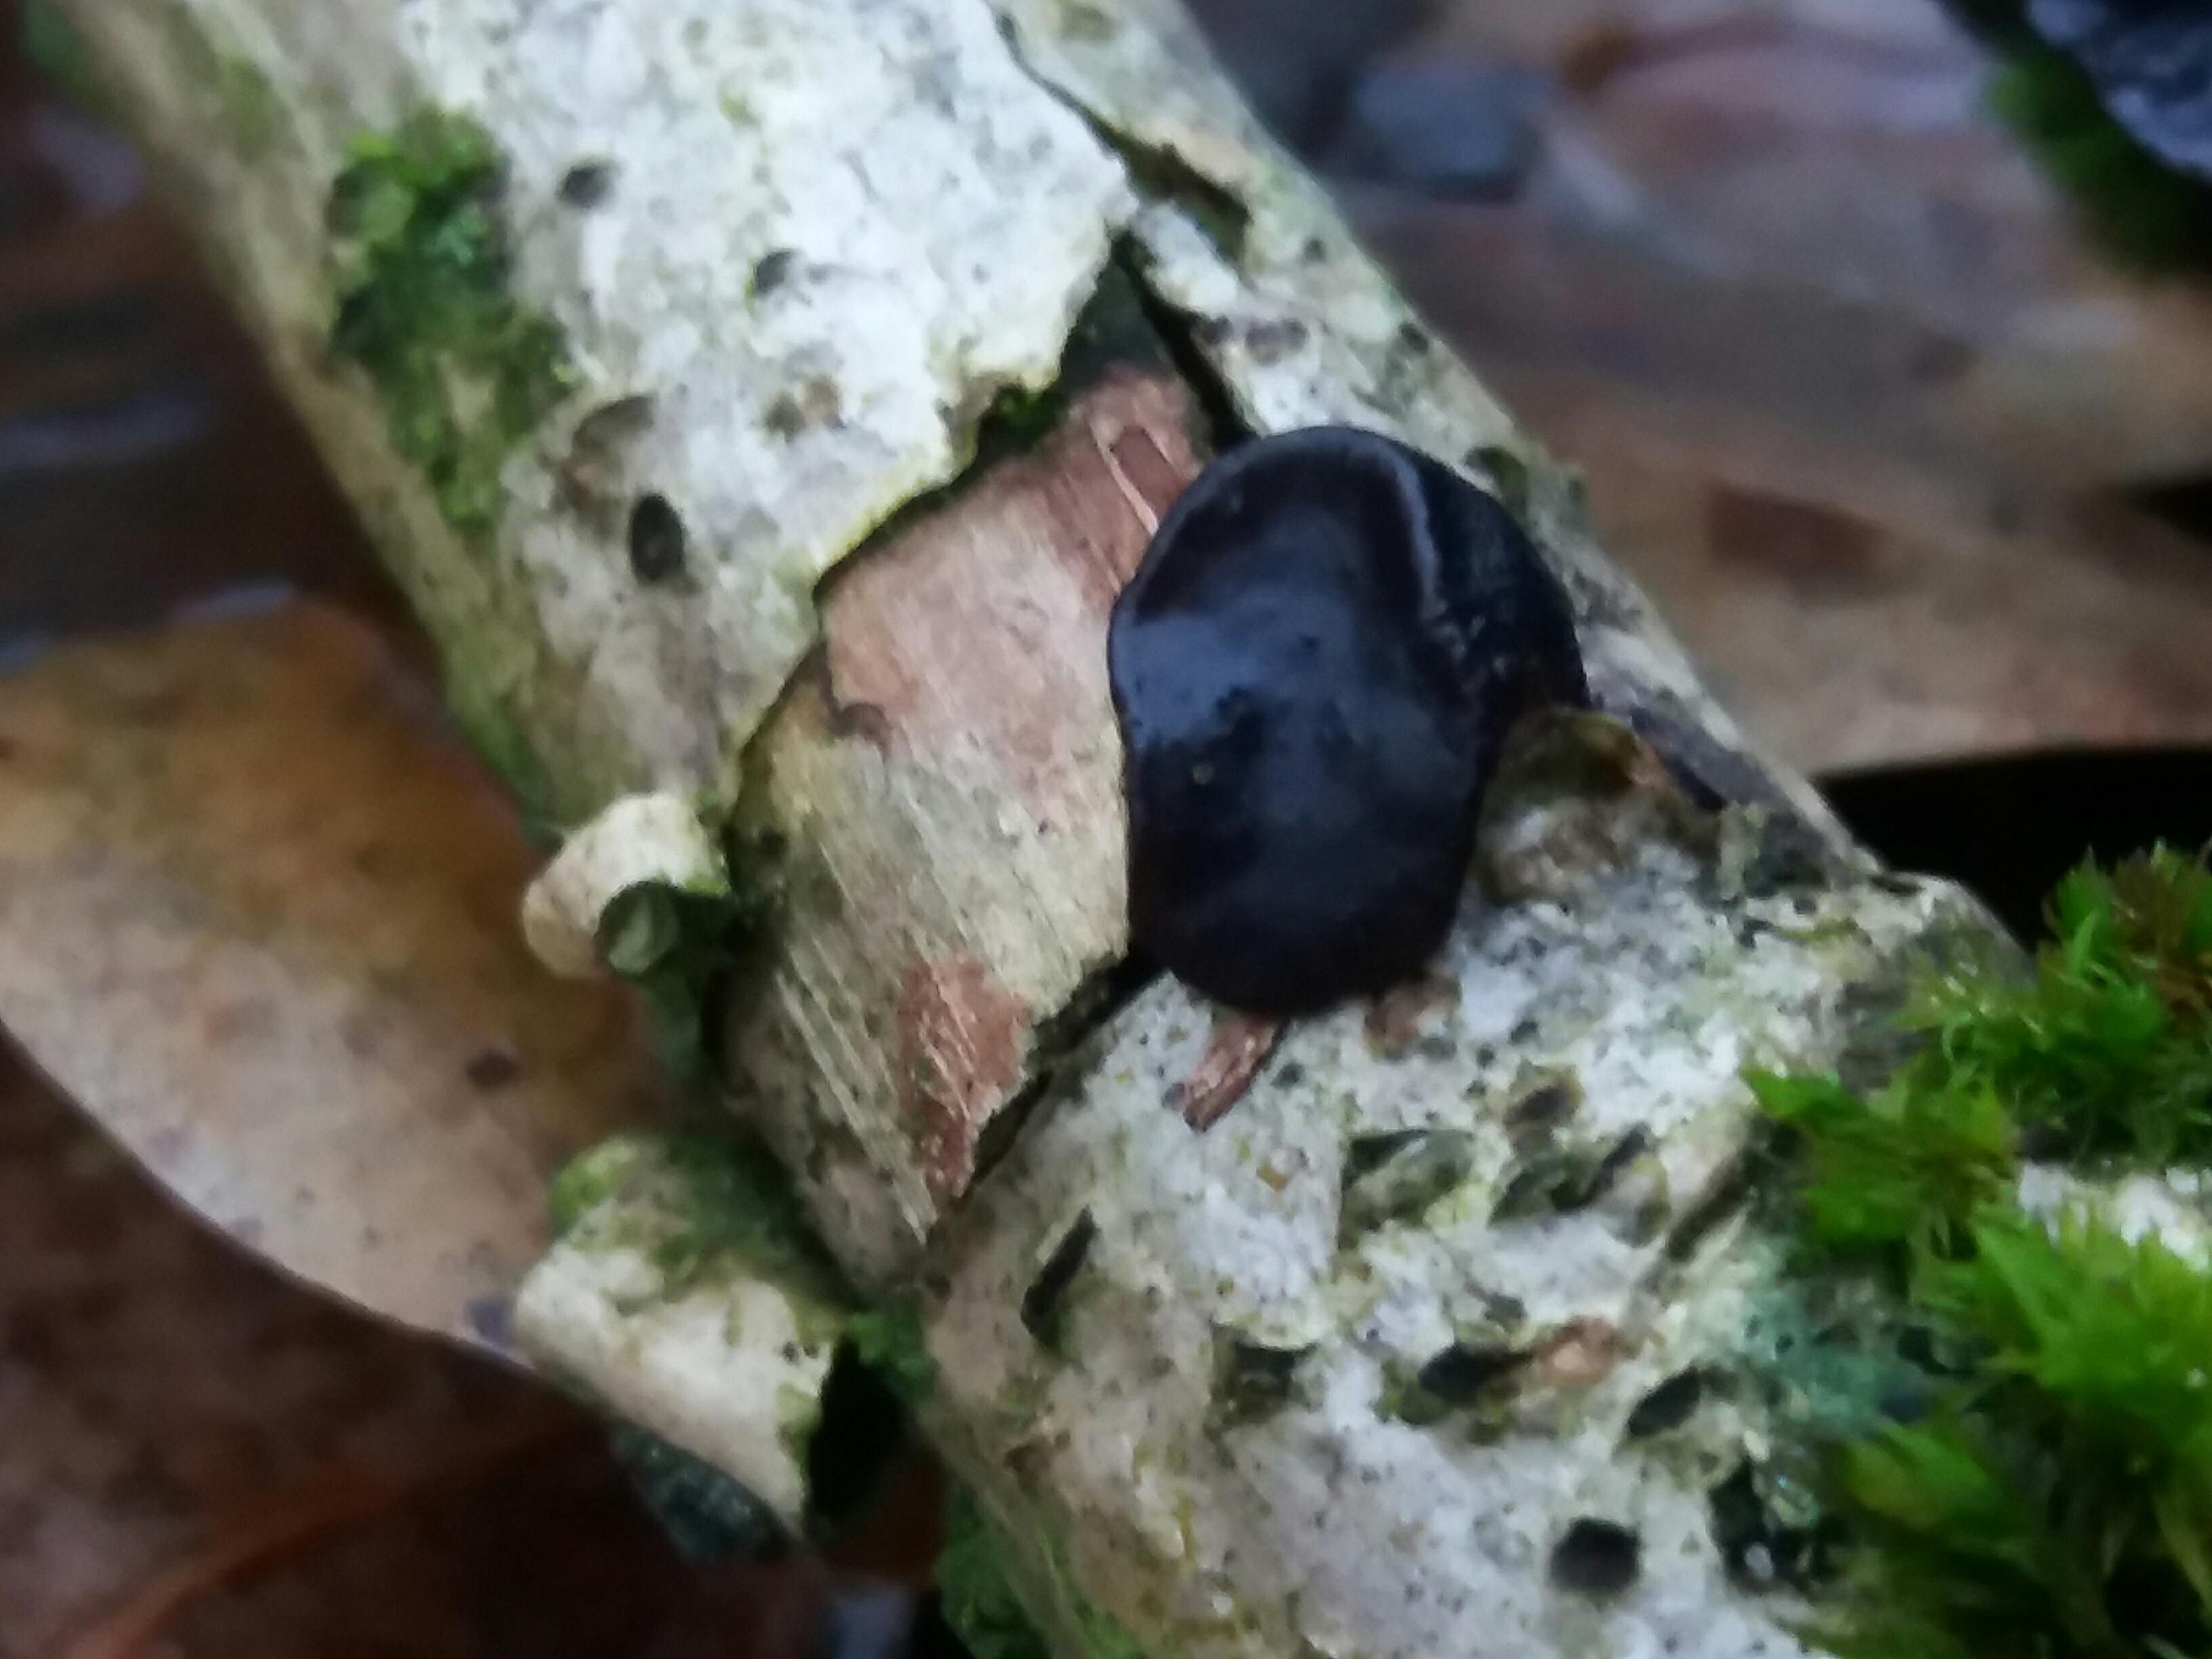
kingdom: Fungi
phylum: Basidiomycota
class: Agaricomycetes
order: Auriculariales
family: Auriculariaceae
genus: Exidia
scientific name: Exidia glandulosa
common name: ege-bævretop
